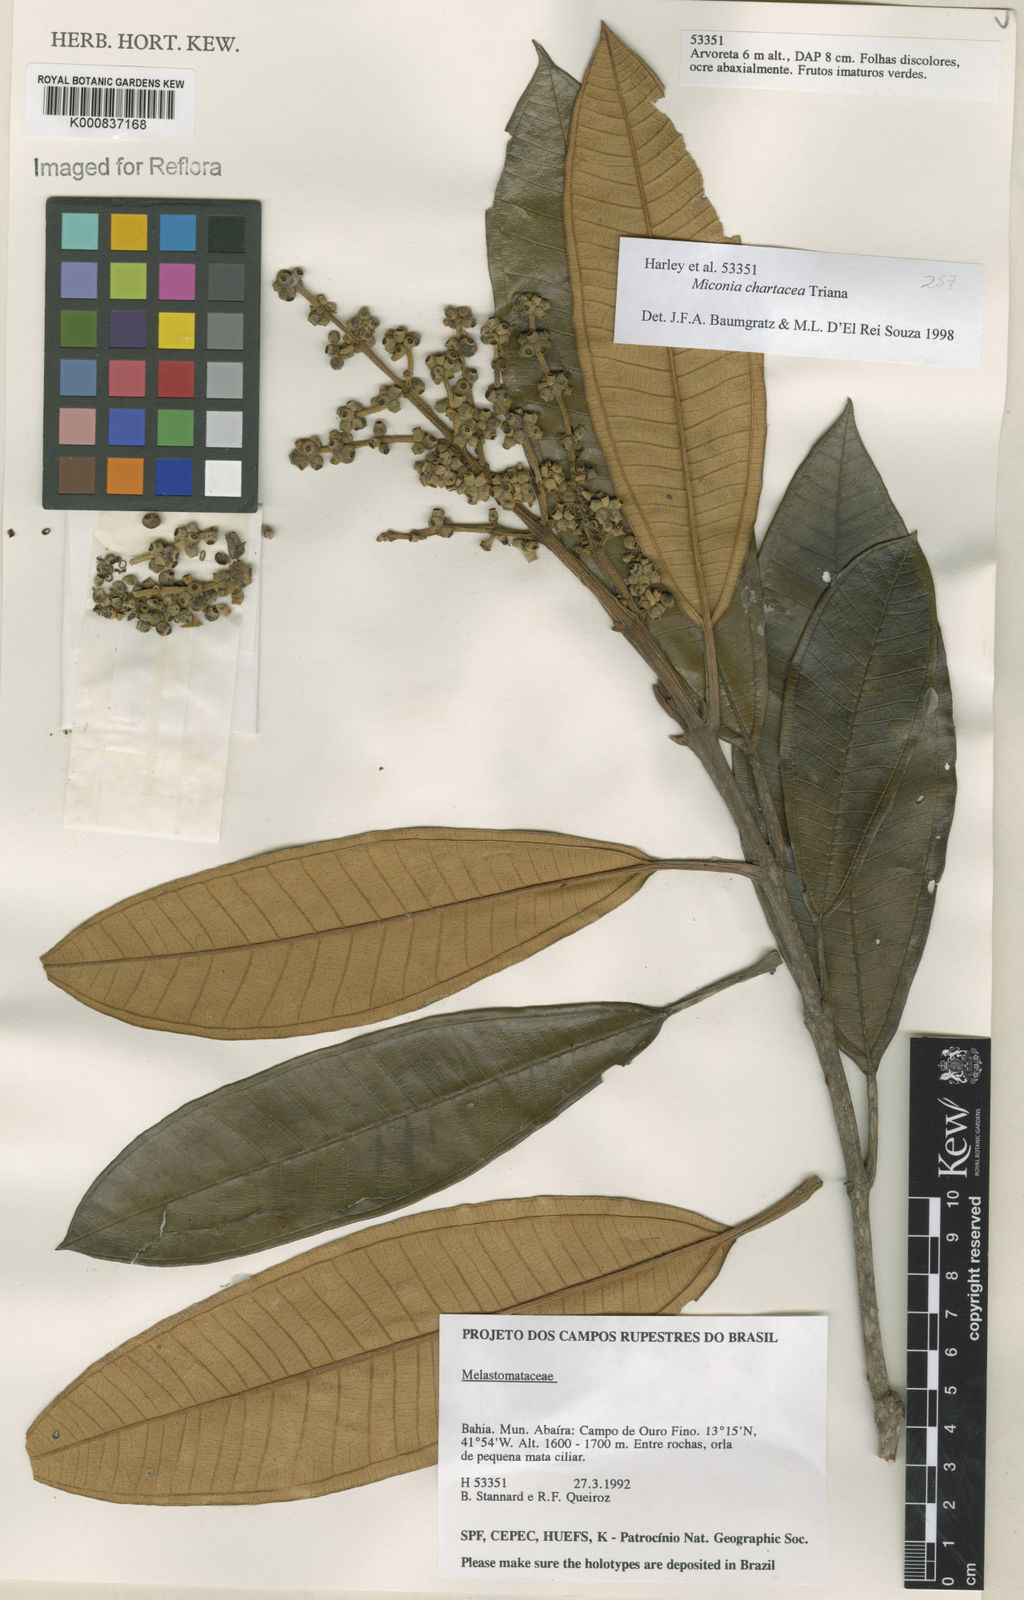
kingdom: Plantae
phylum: Tracheophyta
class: Magnoliopsida
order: Myrtales
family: Melastomataceae
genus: Miconia
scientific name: Miconia chartacea
